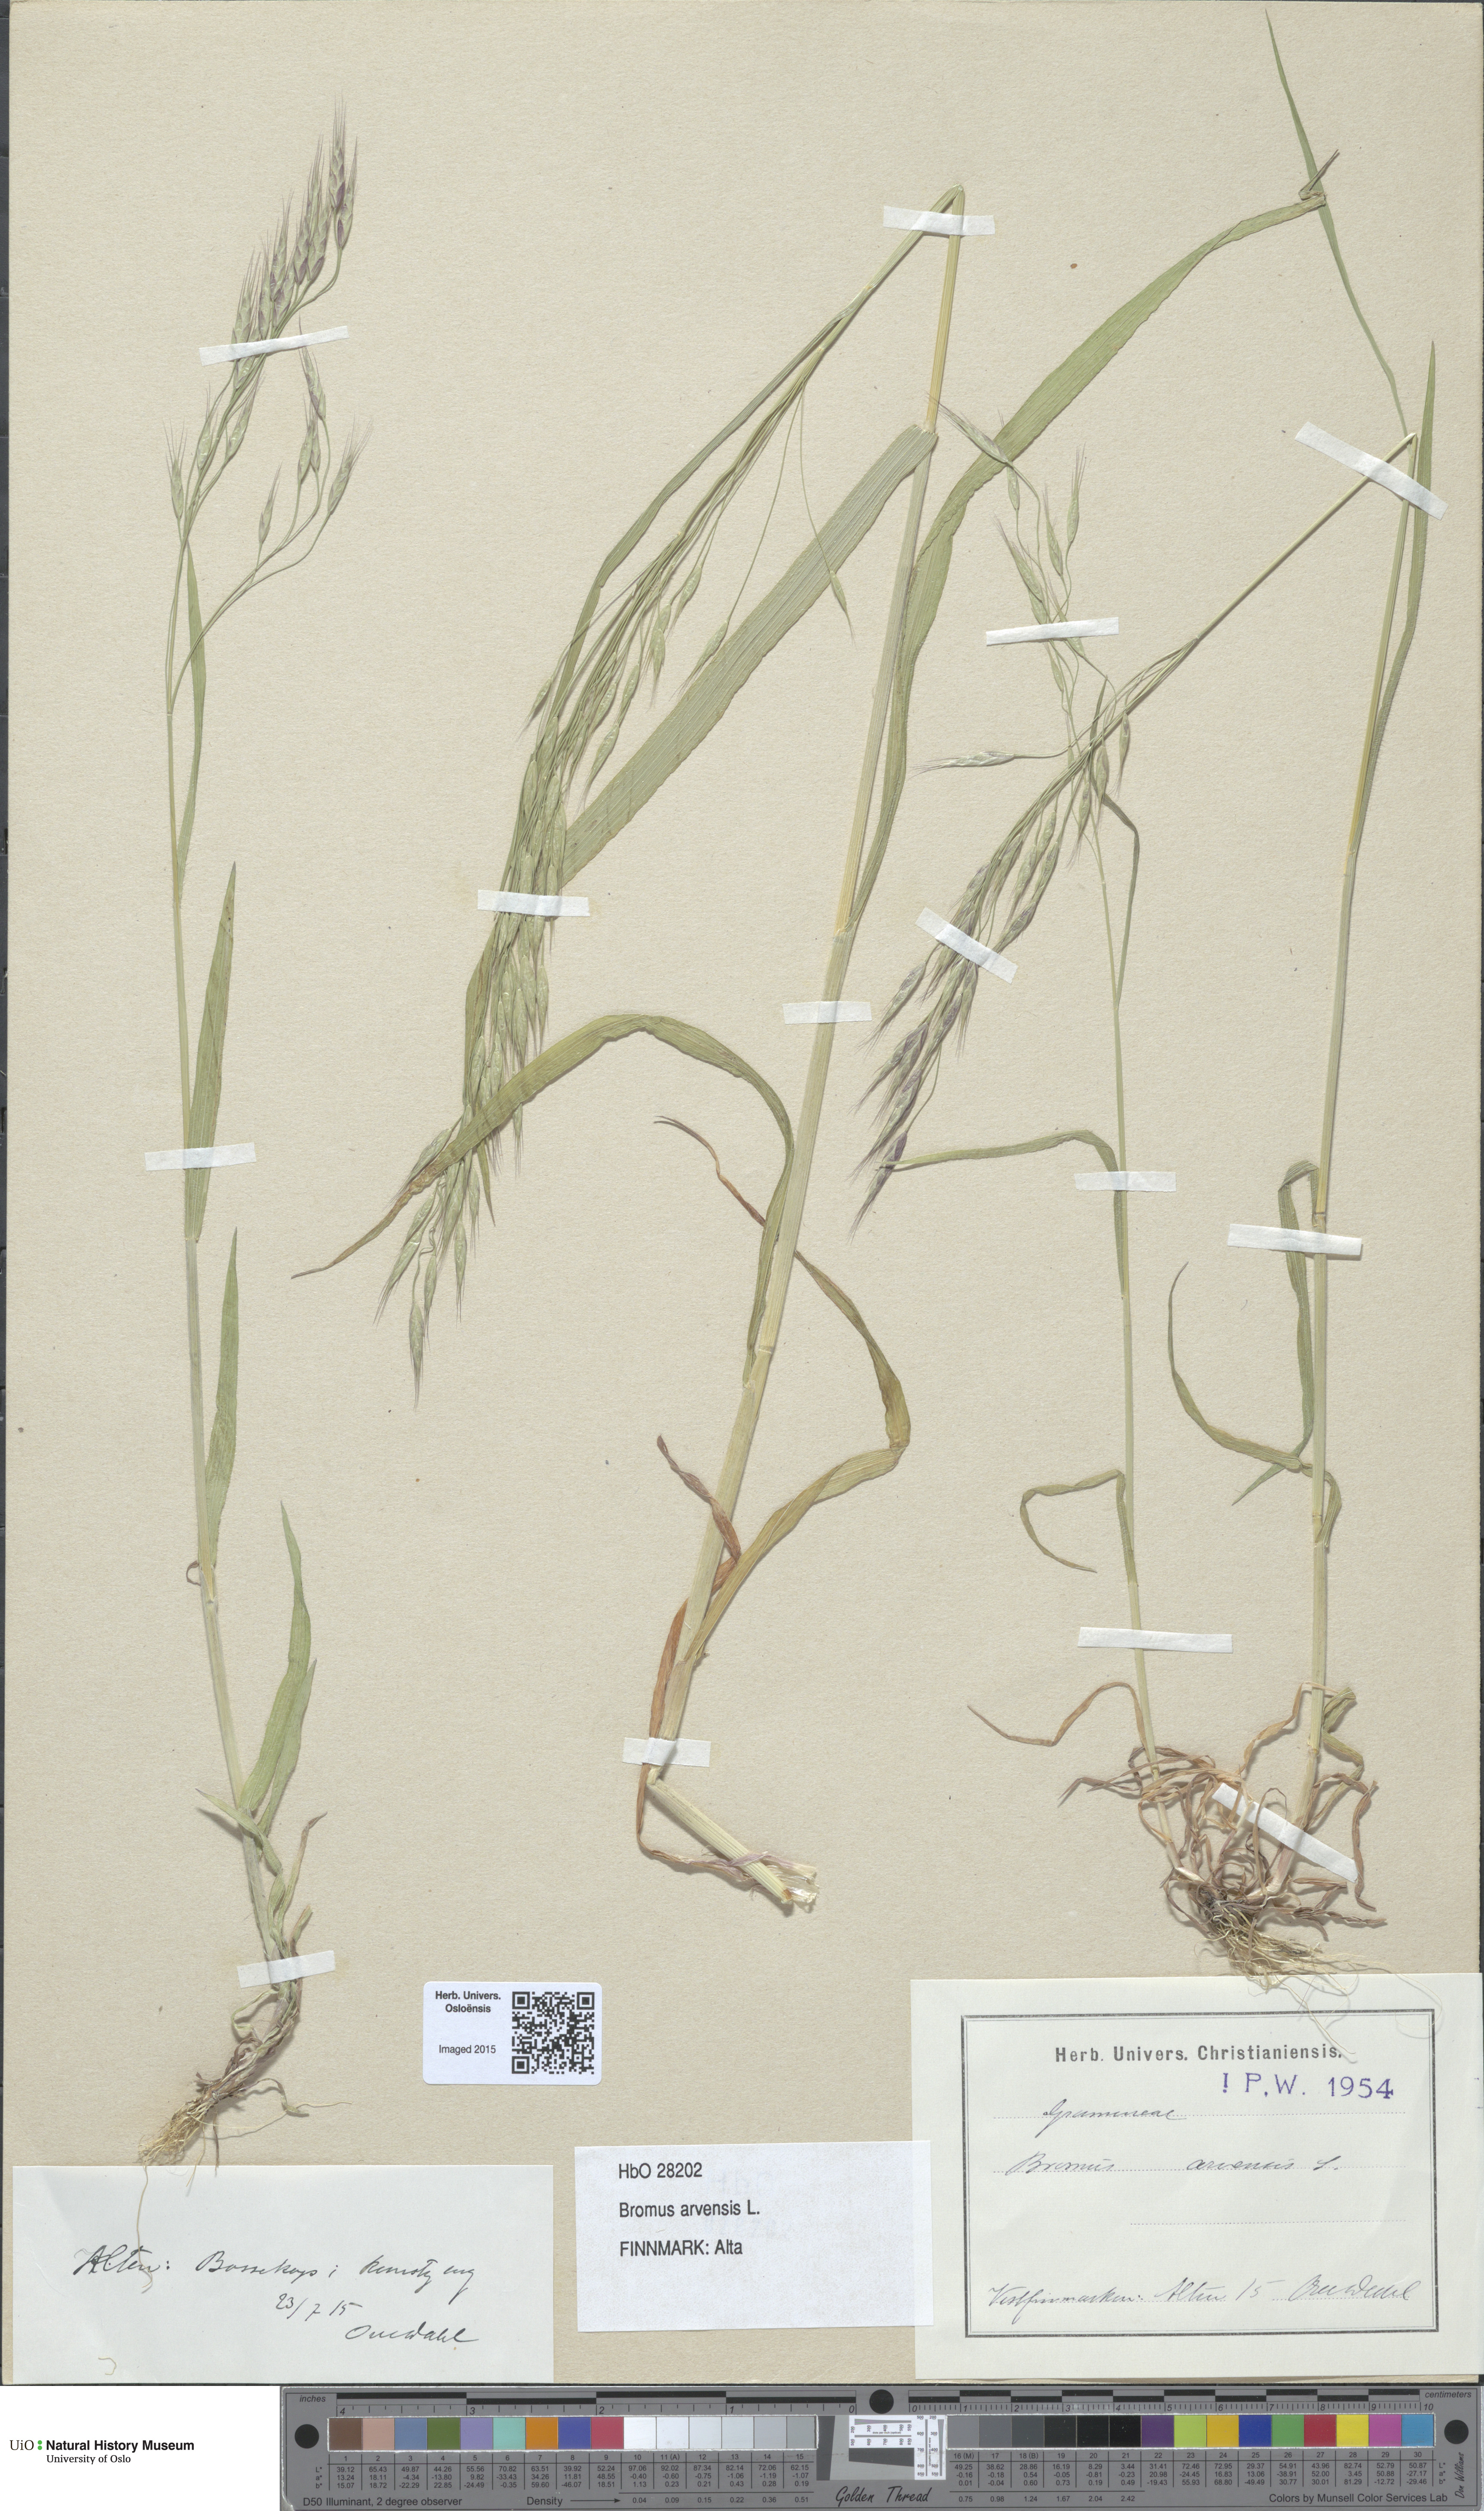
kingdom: Plantae
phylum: Tracheophyta
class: Liliopsida
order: Poales
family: Poaceae
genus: Bromus
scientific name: Bromus arvensis
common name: Field brome
